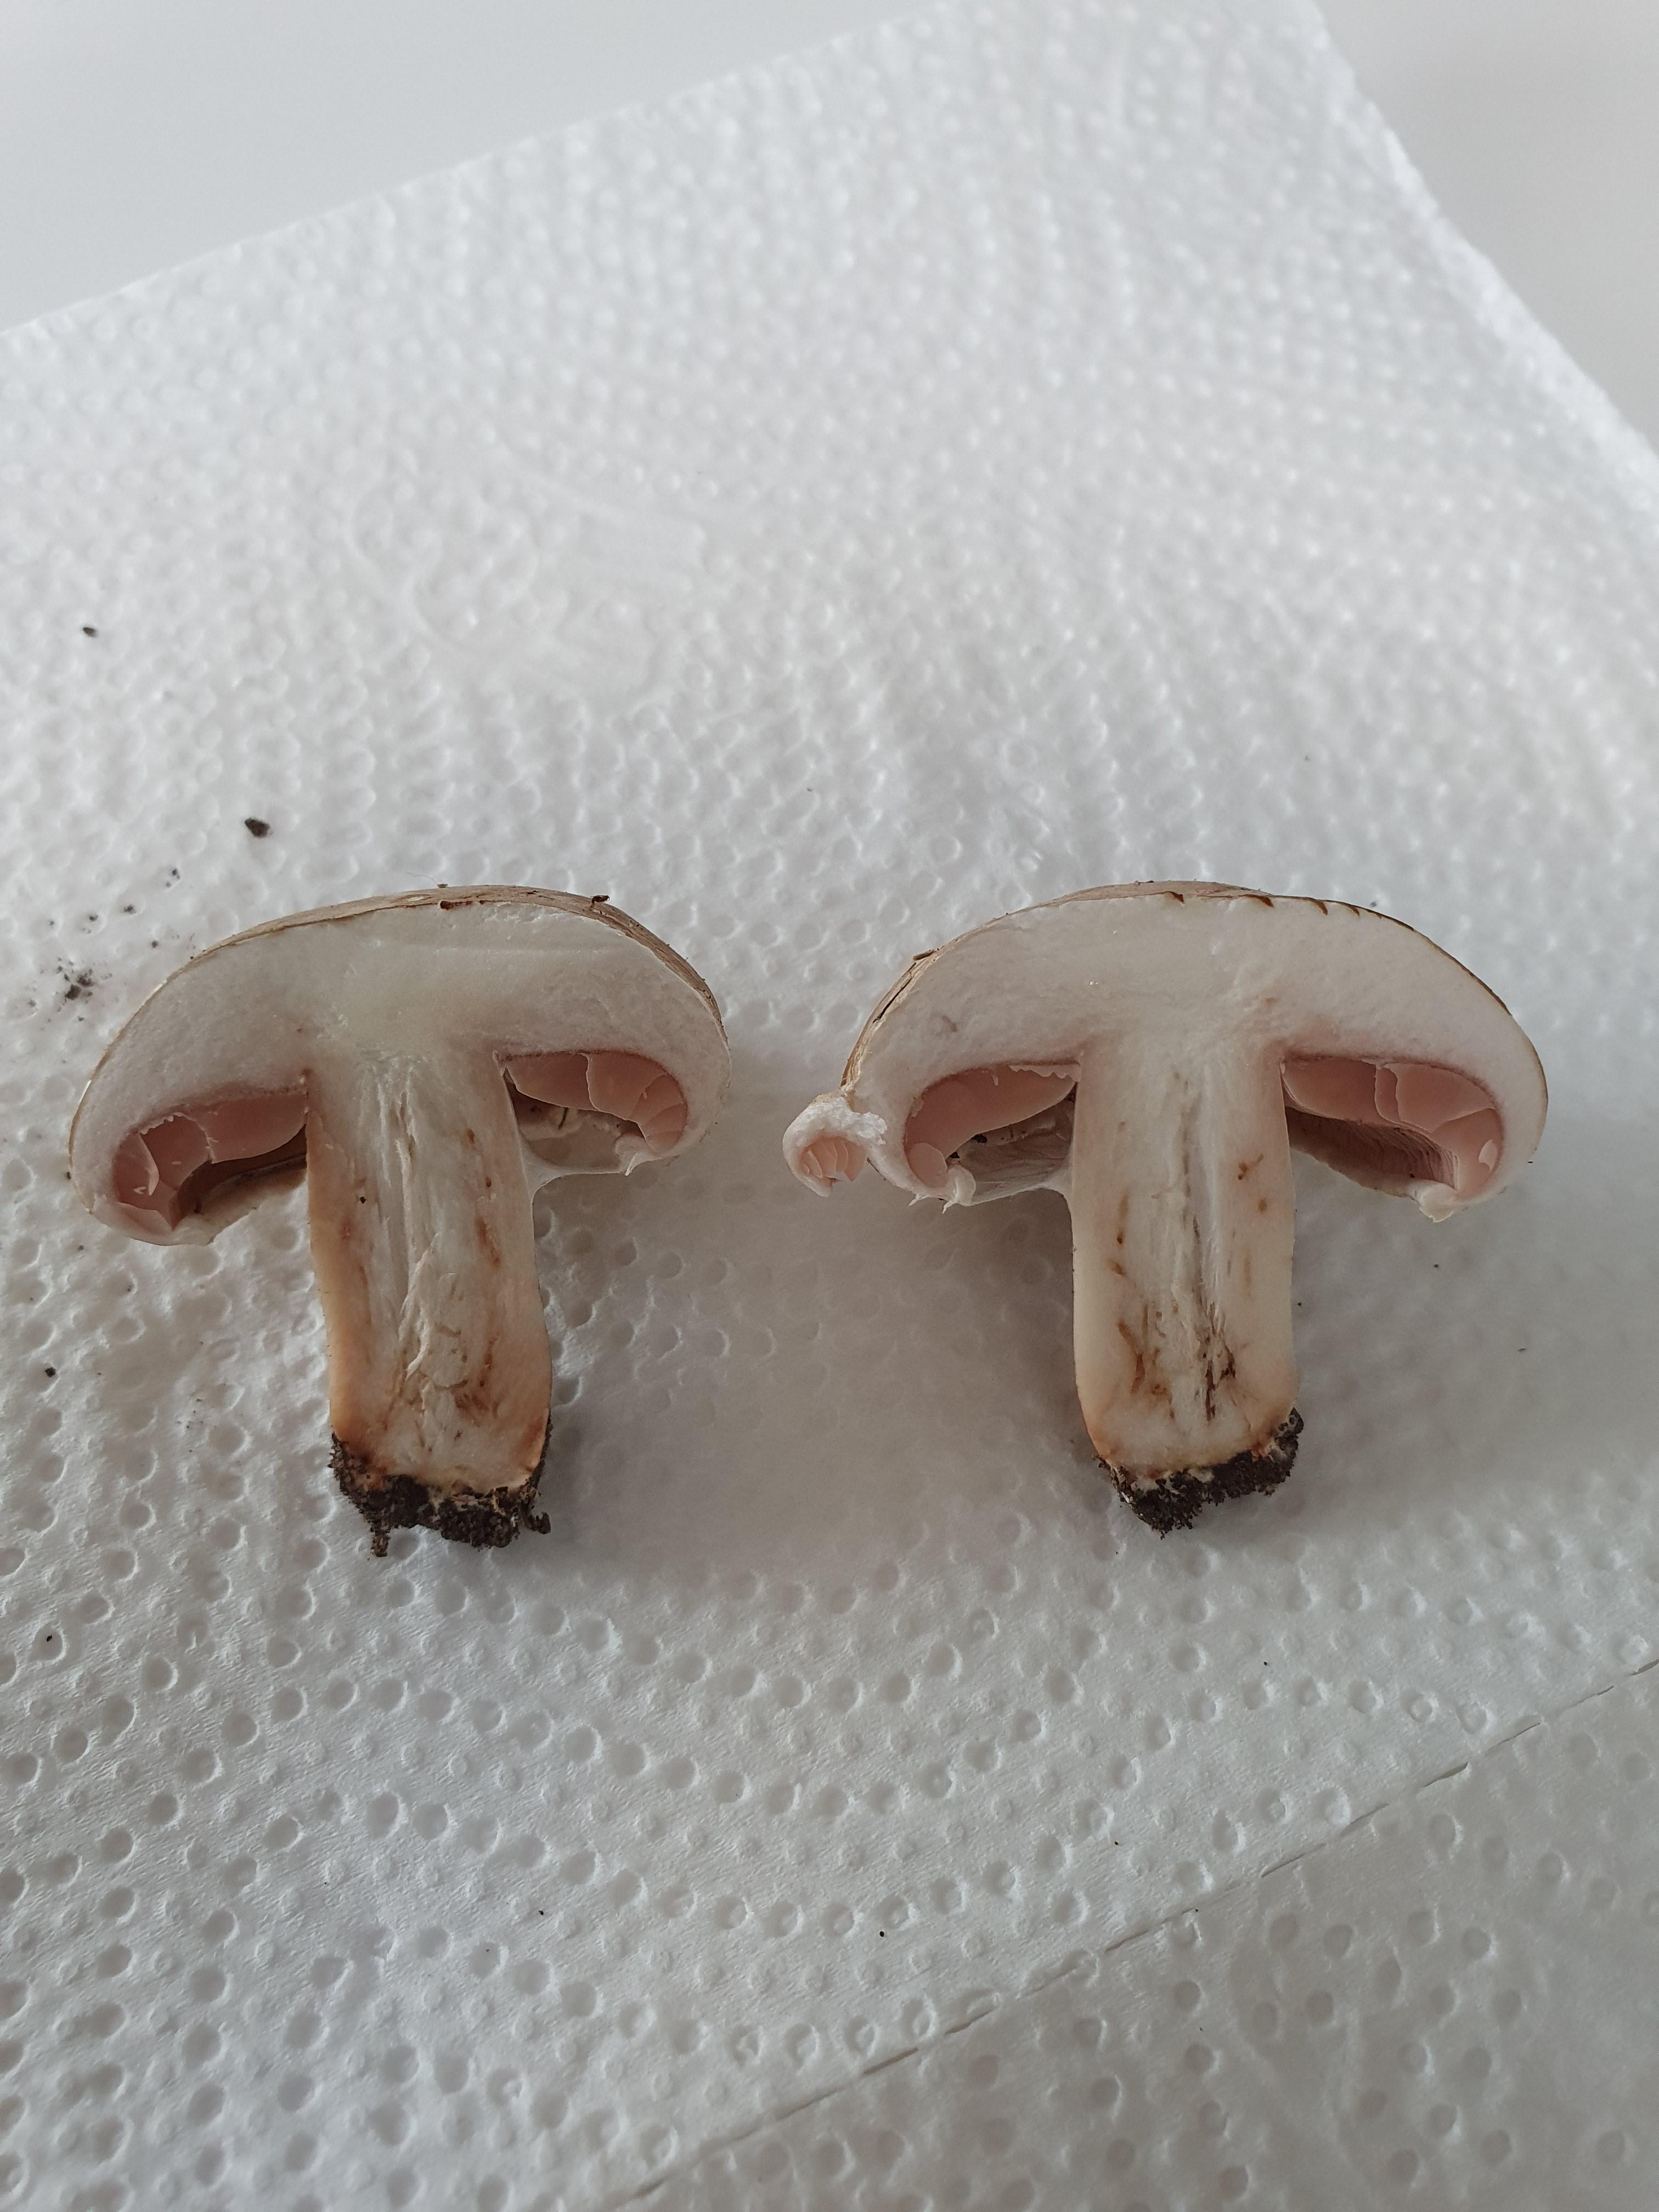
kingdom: Fungi
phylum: Basidiomycota
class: Agaricomycetes
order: Agaricales
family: Agaricaceae
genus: Agaricus
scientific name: Agaricus bisporus
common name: have-champignon
